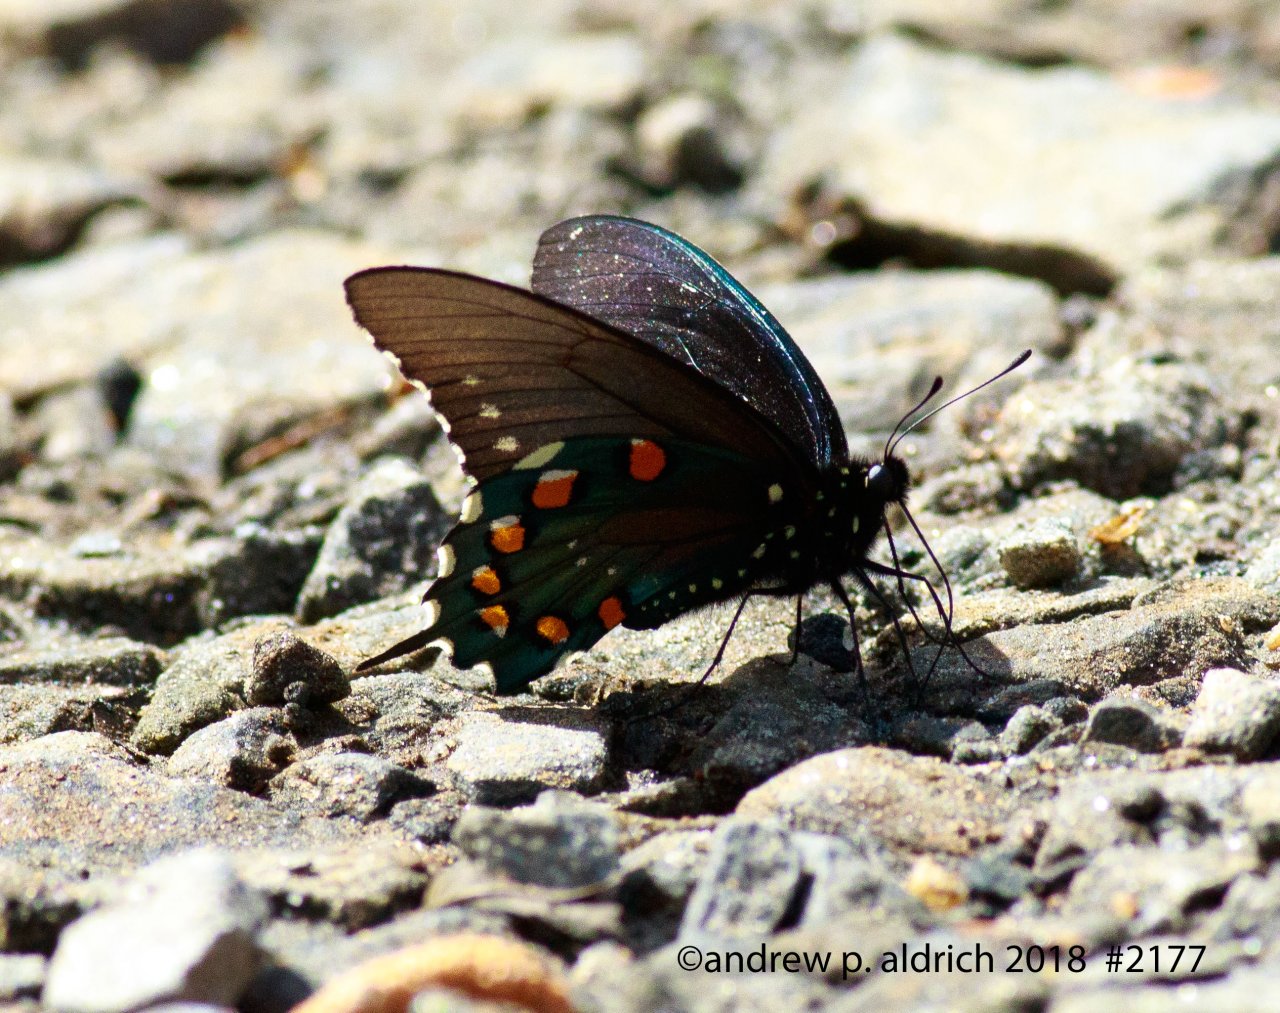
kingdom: Animalia
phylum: Arthropoda
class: Insecta
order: Lepidoptera
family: Papilionidae
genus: Battus
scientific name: Battus philenor
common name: Pipevine Swallowtail
